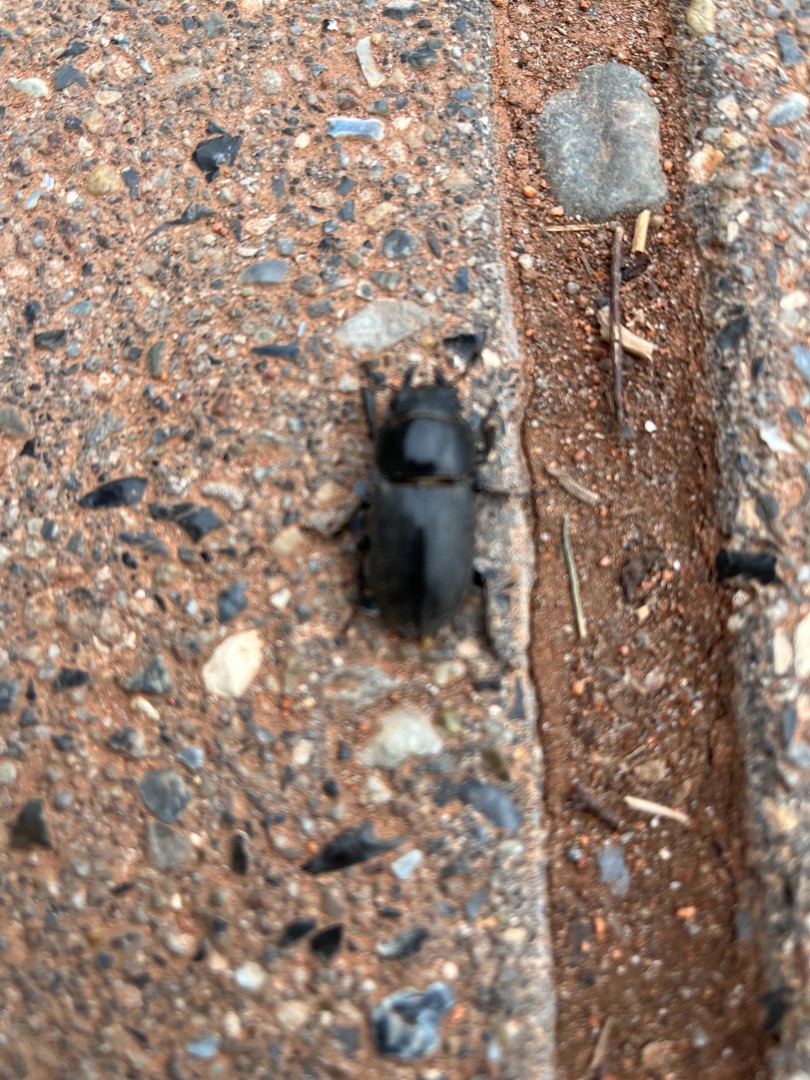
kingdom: Animalia
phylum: Arthropoda
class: Insecta
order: Coleoptera
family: Lucanidae
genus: Dorcus
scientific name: Dorcus parallelipipedus
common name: Bøghjort
